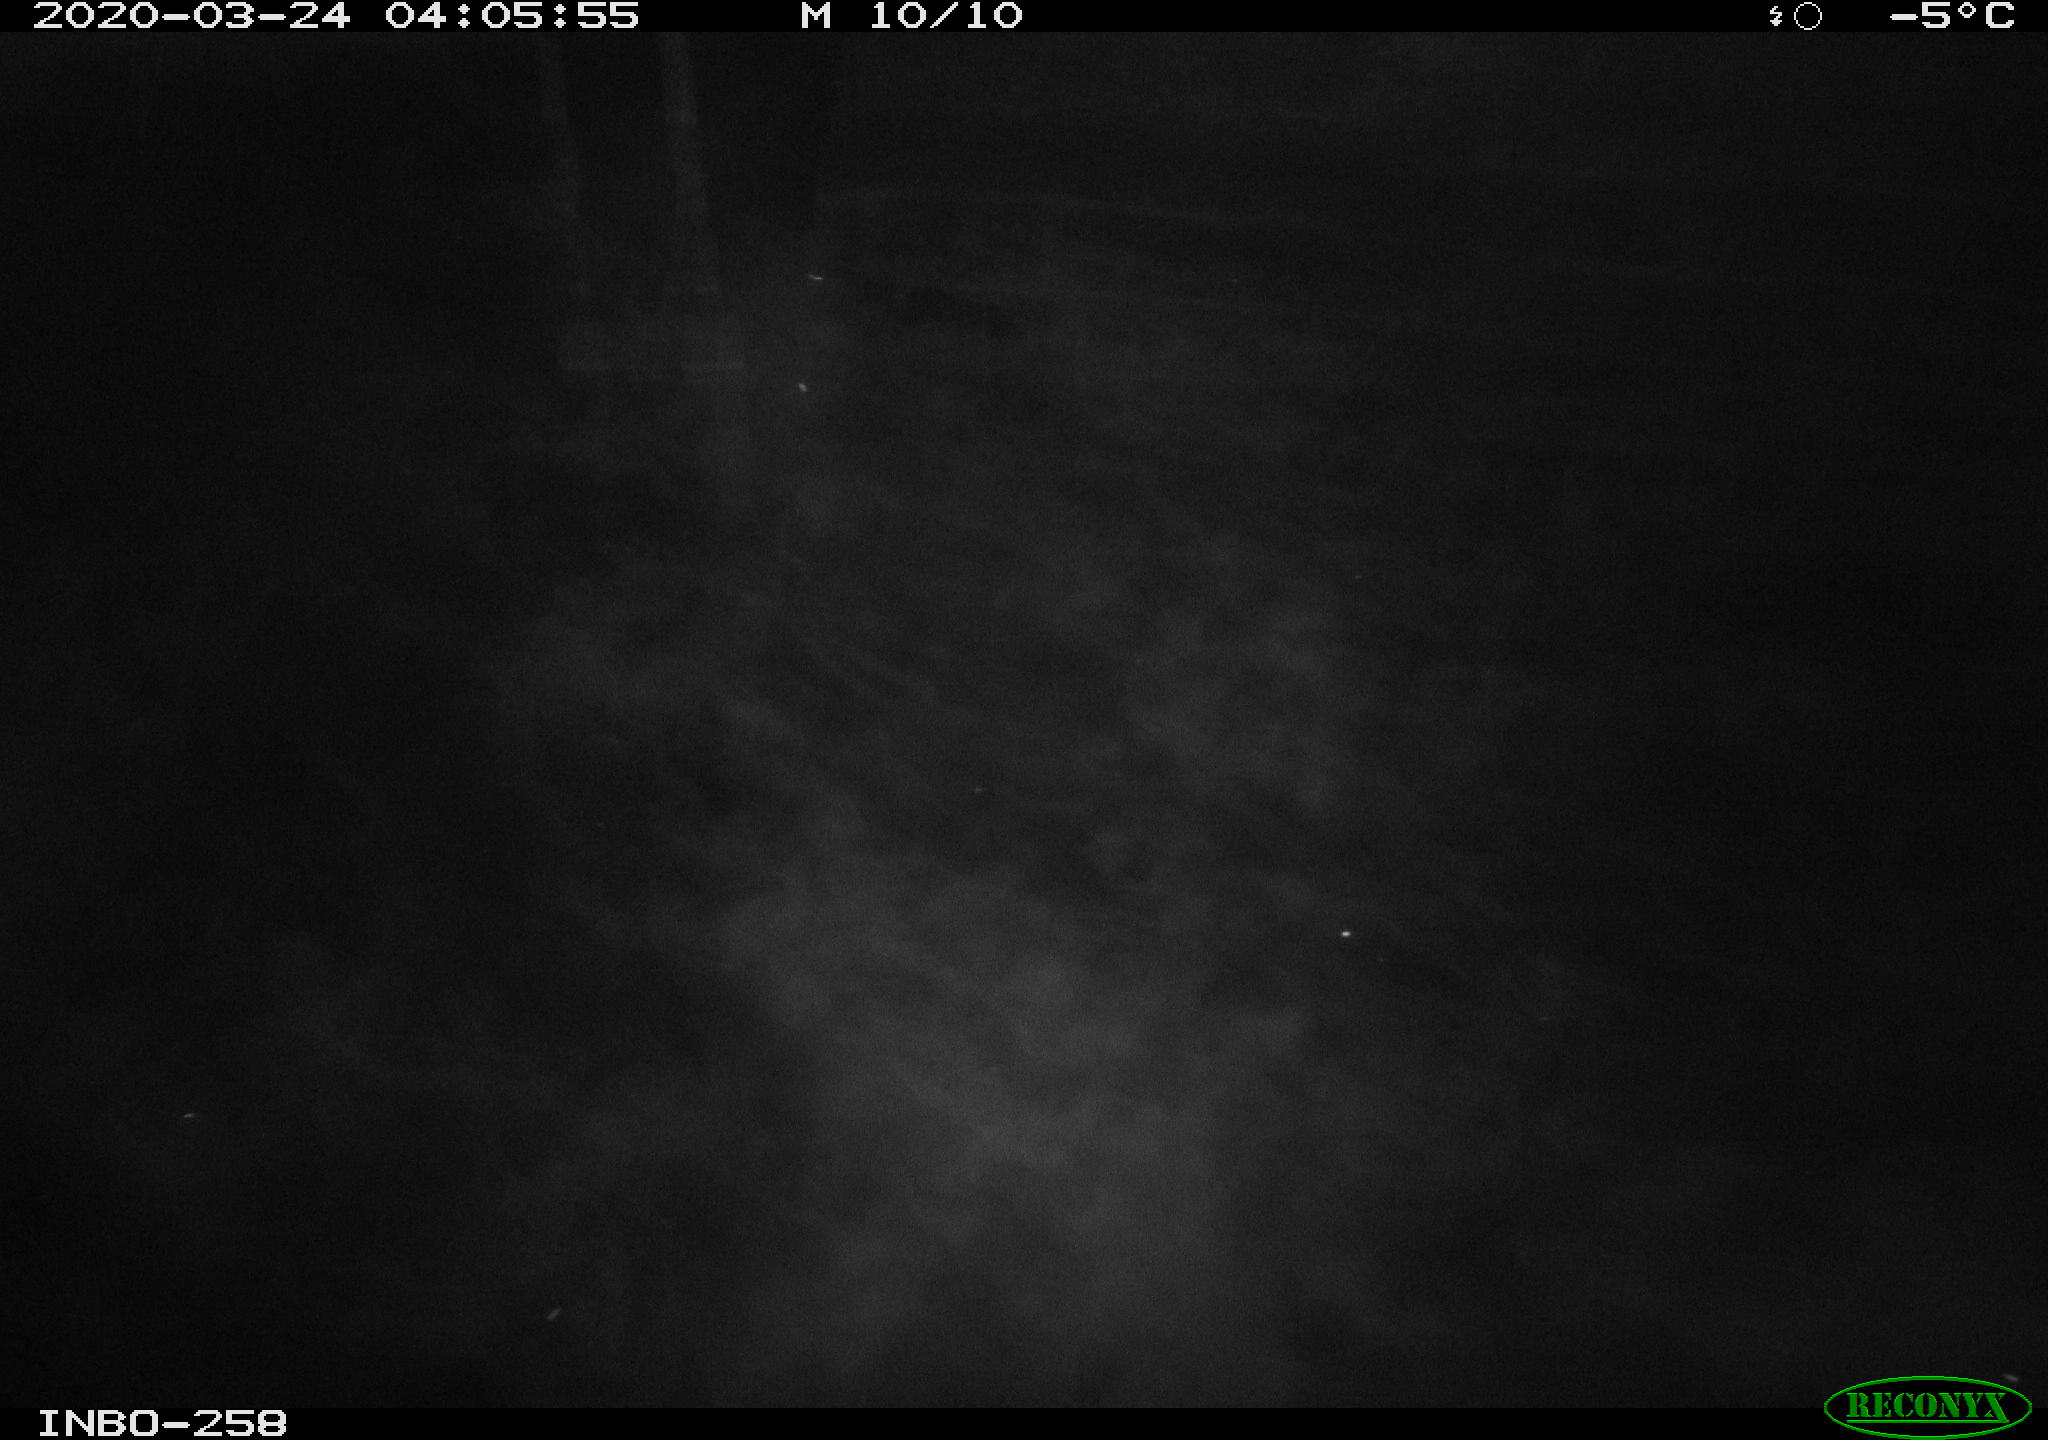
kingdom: Animalia
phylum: Chordata
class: Mammalia
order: Rodentia
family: Muridae
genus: Rattus
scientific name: Rattus norvegicus
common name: Brown rat
